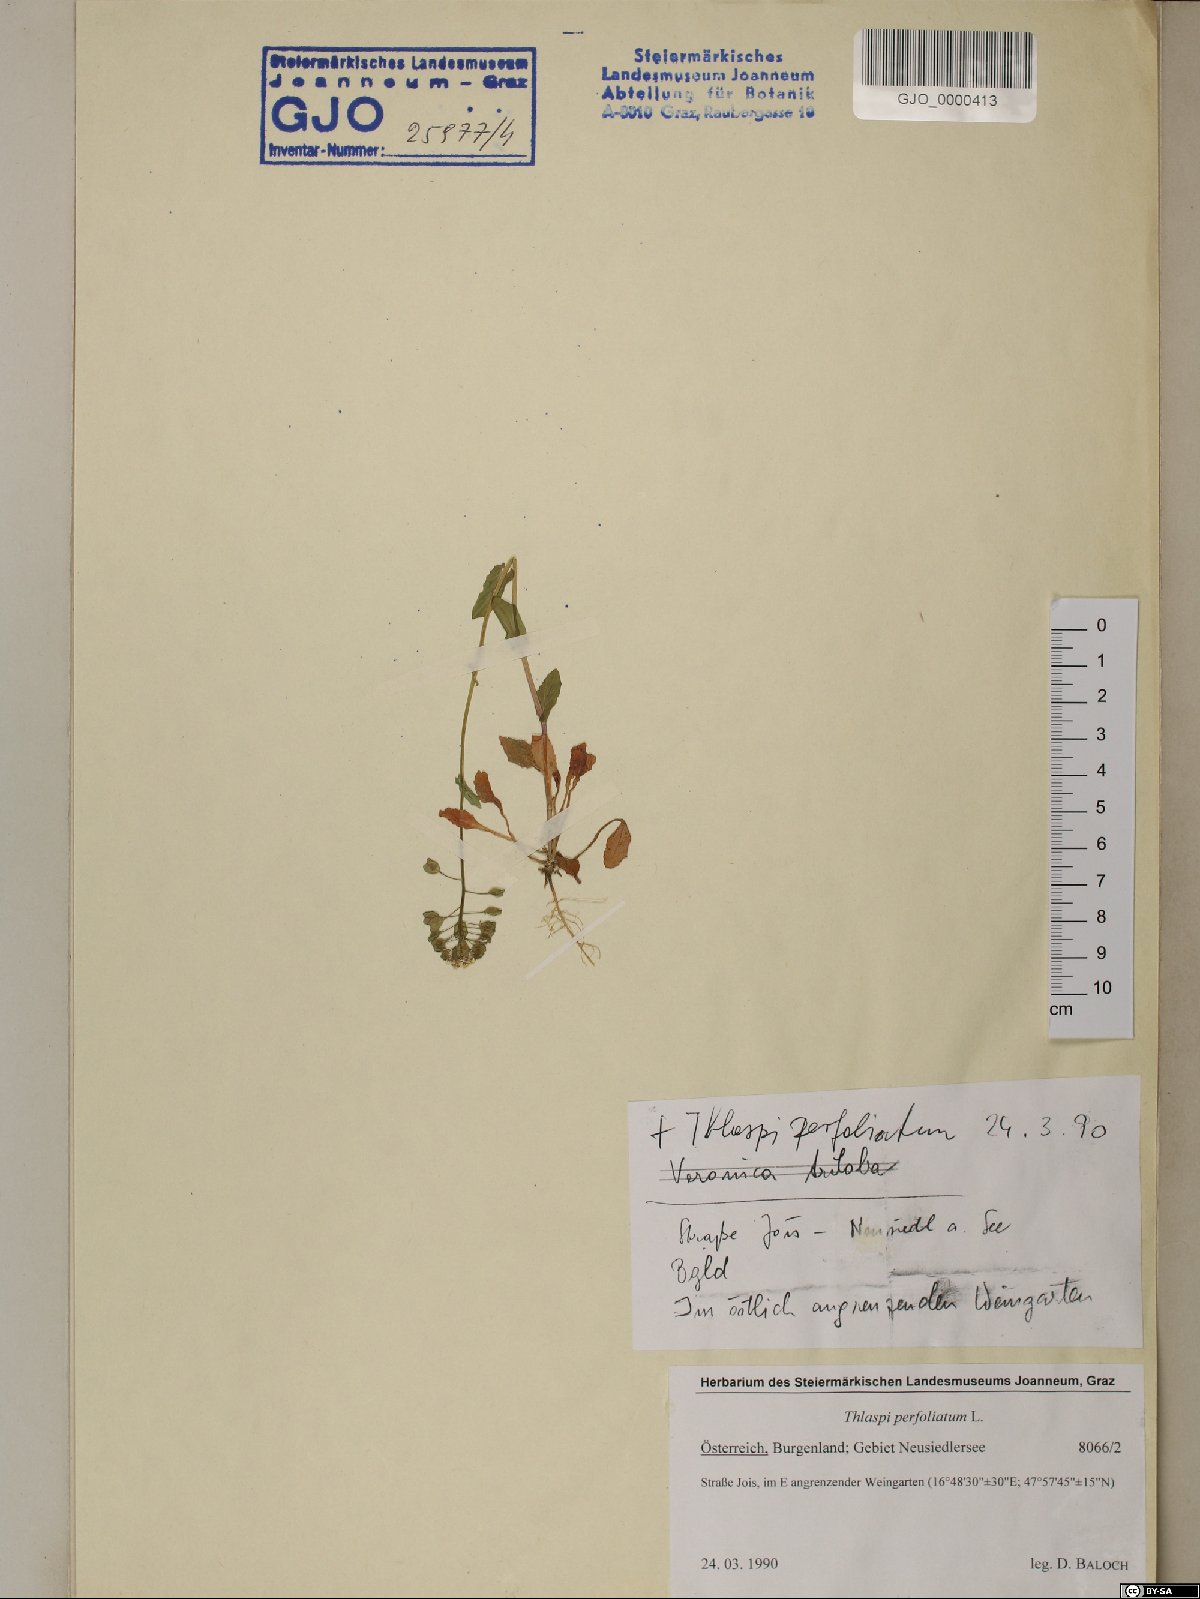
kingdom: Plantae
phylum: Tracheophyta
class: Magnoliopsida
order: Brassicales
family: Brassicaceae
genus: Noccaea
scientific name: Noccaea perfoliata
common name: Perfoliate pennycress
